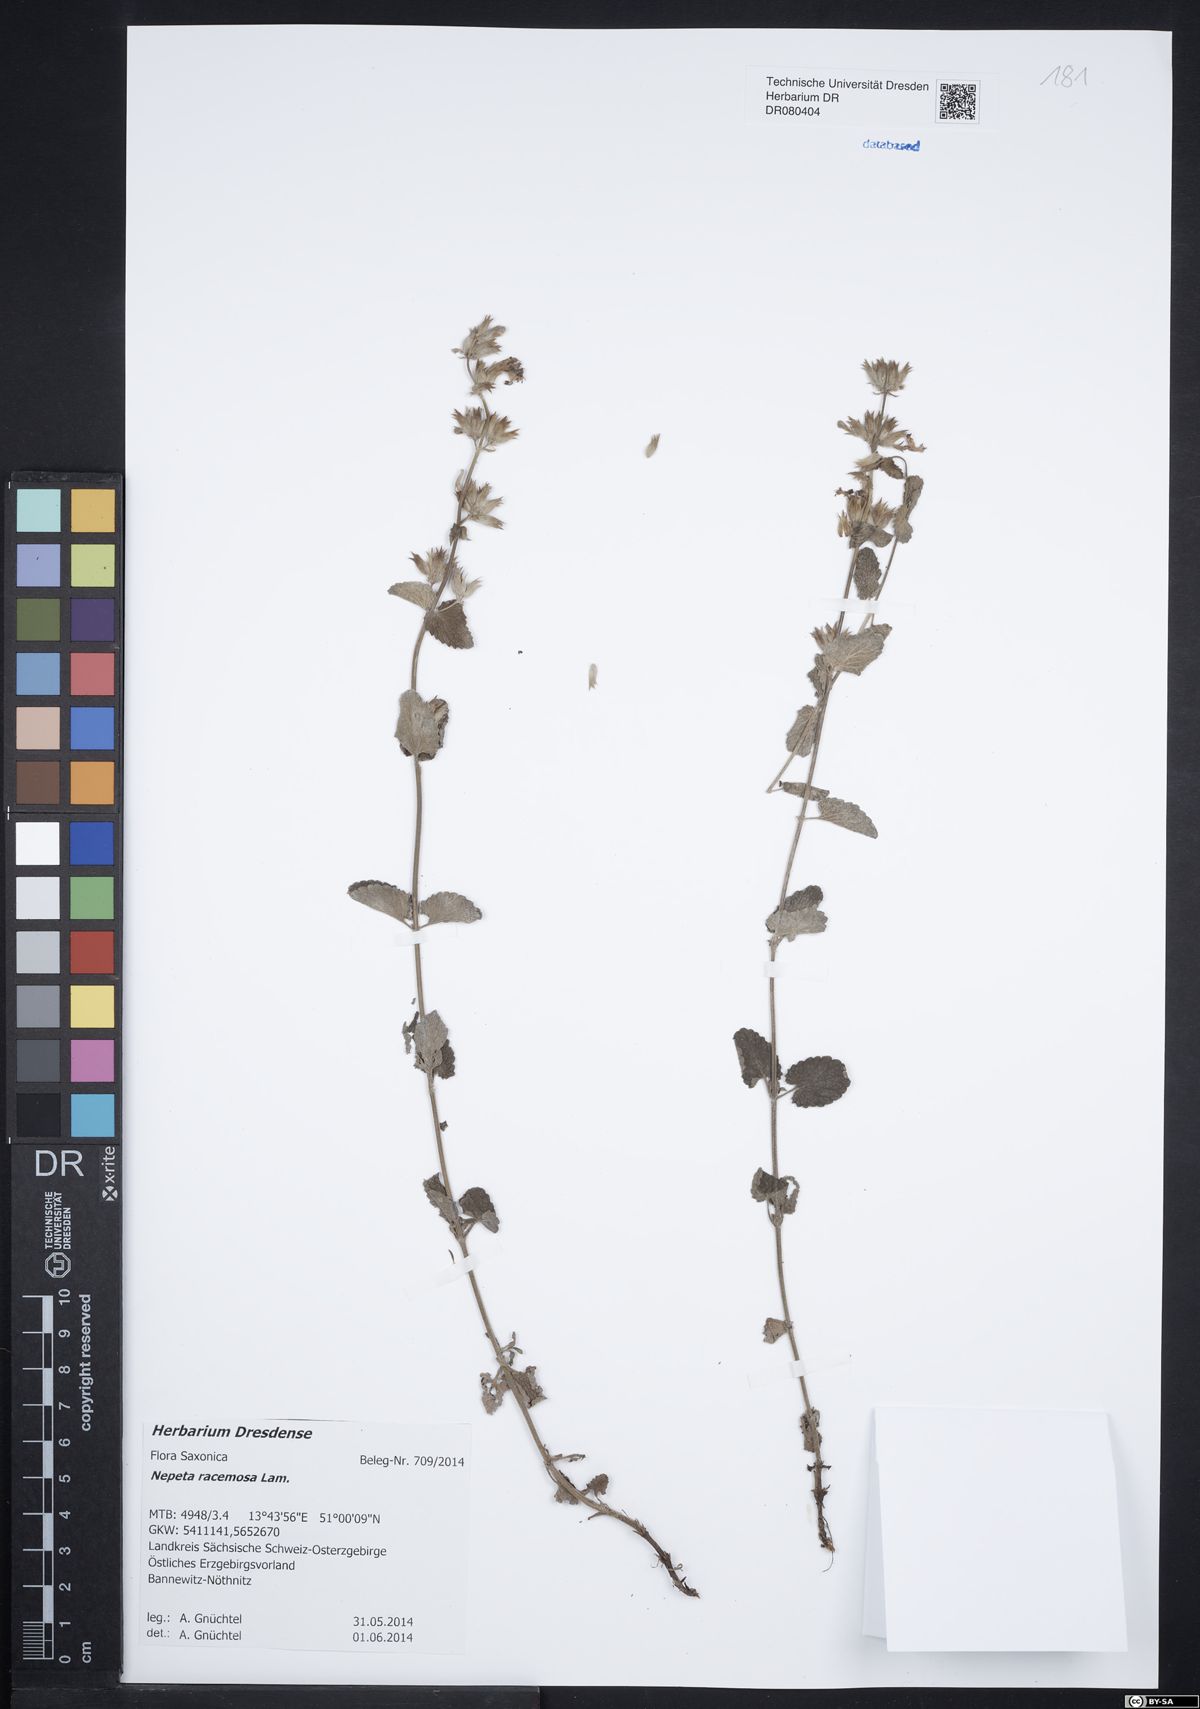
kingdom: Plantae
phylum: Tracheophyta
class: Magnoliopsida
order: Lamiales
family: Lamiaceae
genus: Nepeta
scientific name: Nepeta racemosa
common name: Raceme catnip
